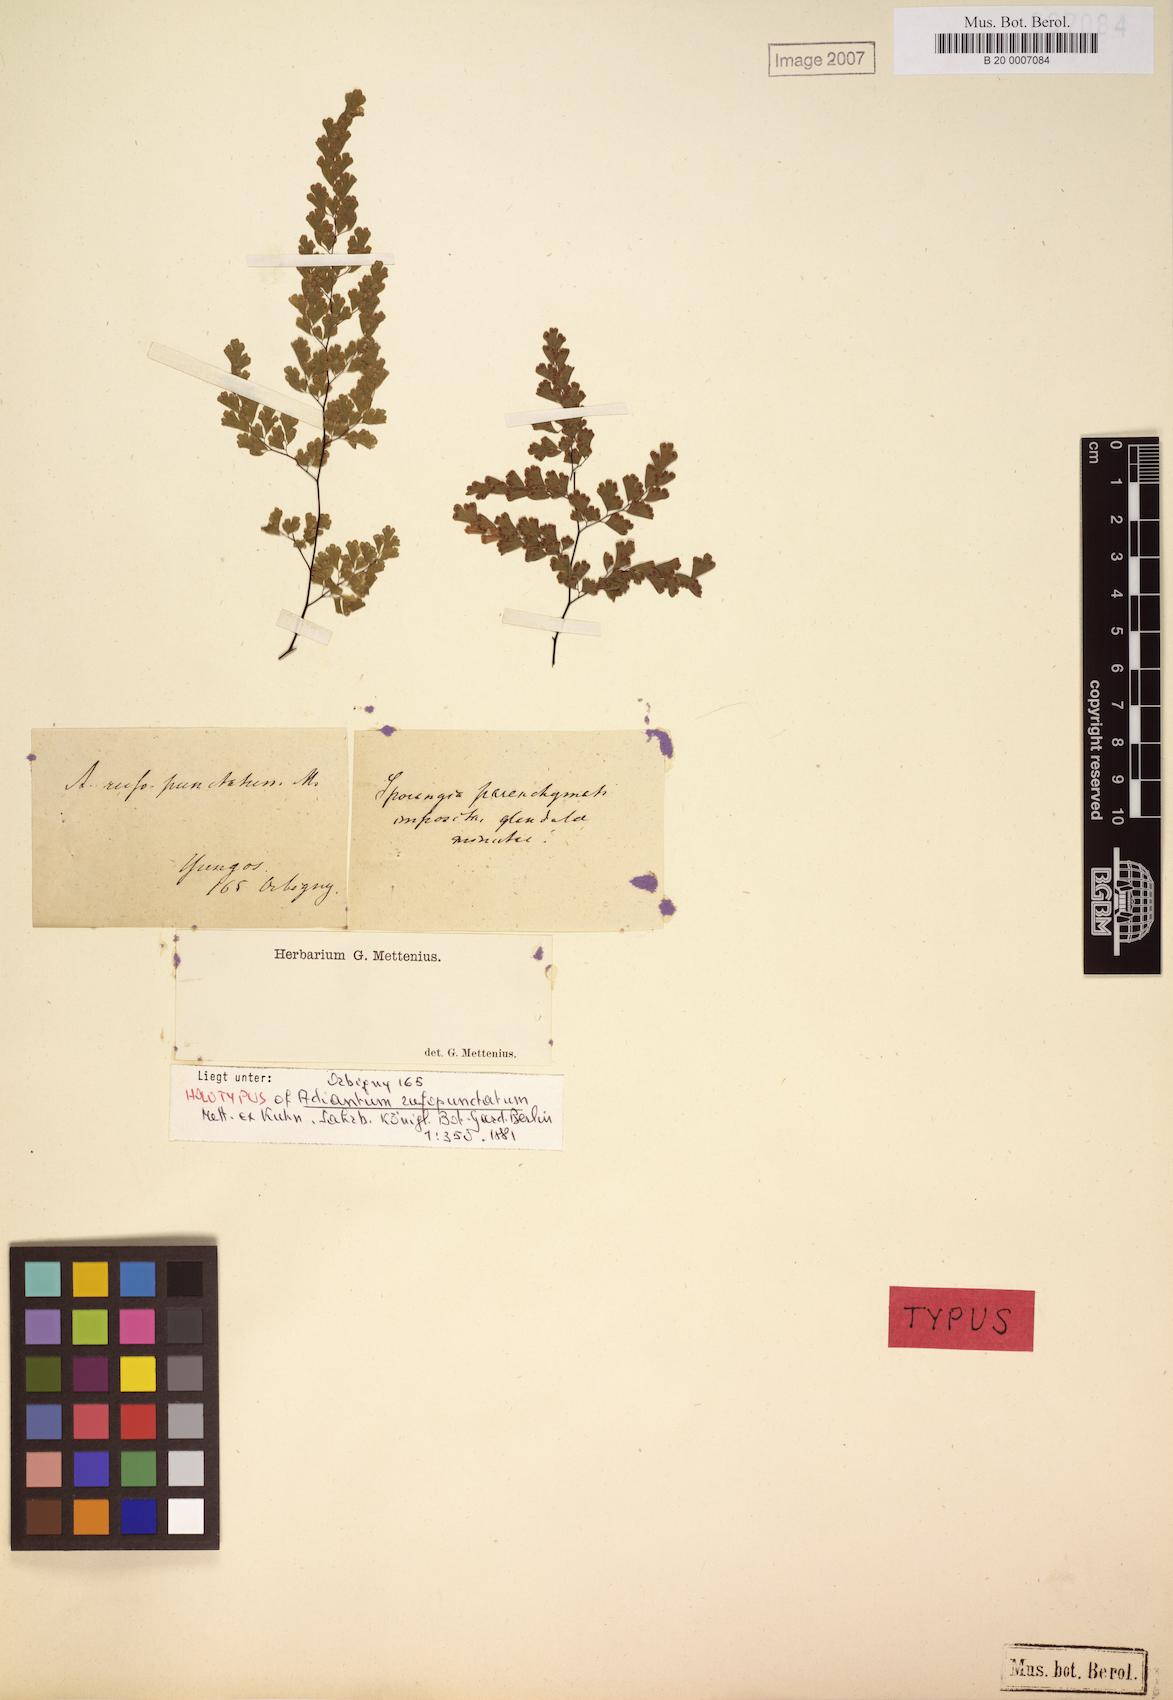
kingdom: Plantae
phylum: Tracheophyta
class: Polypodiopsida
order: Polypodiales
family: Pteridaceae
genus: Adiantum
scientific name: Adiantum moorei
